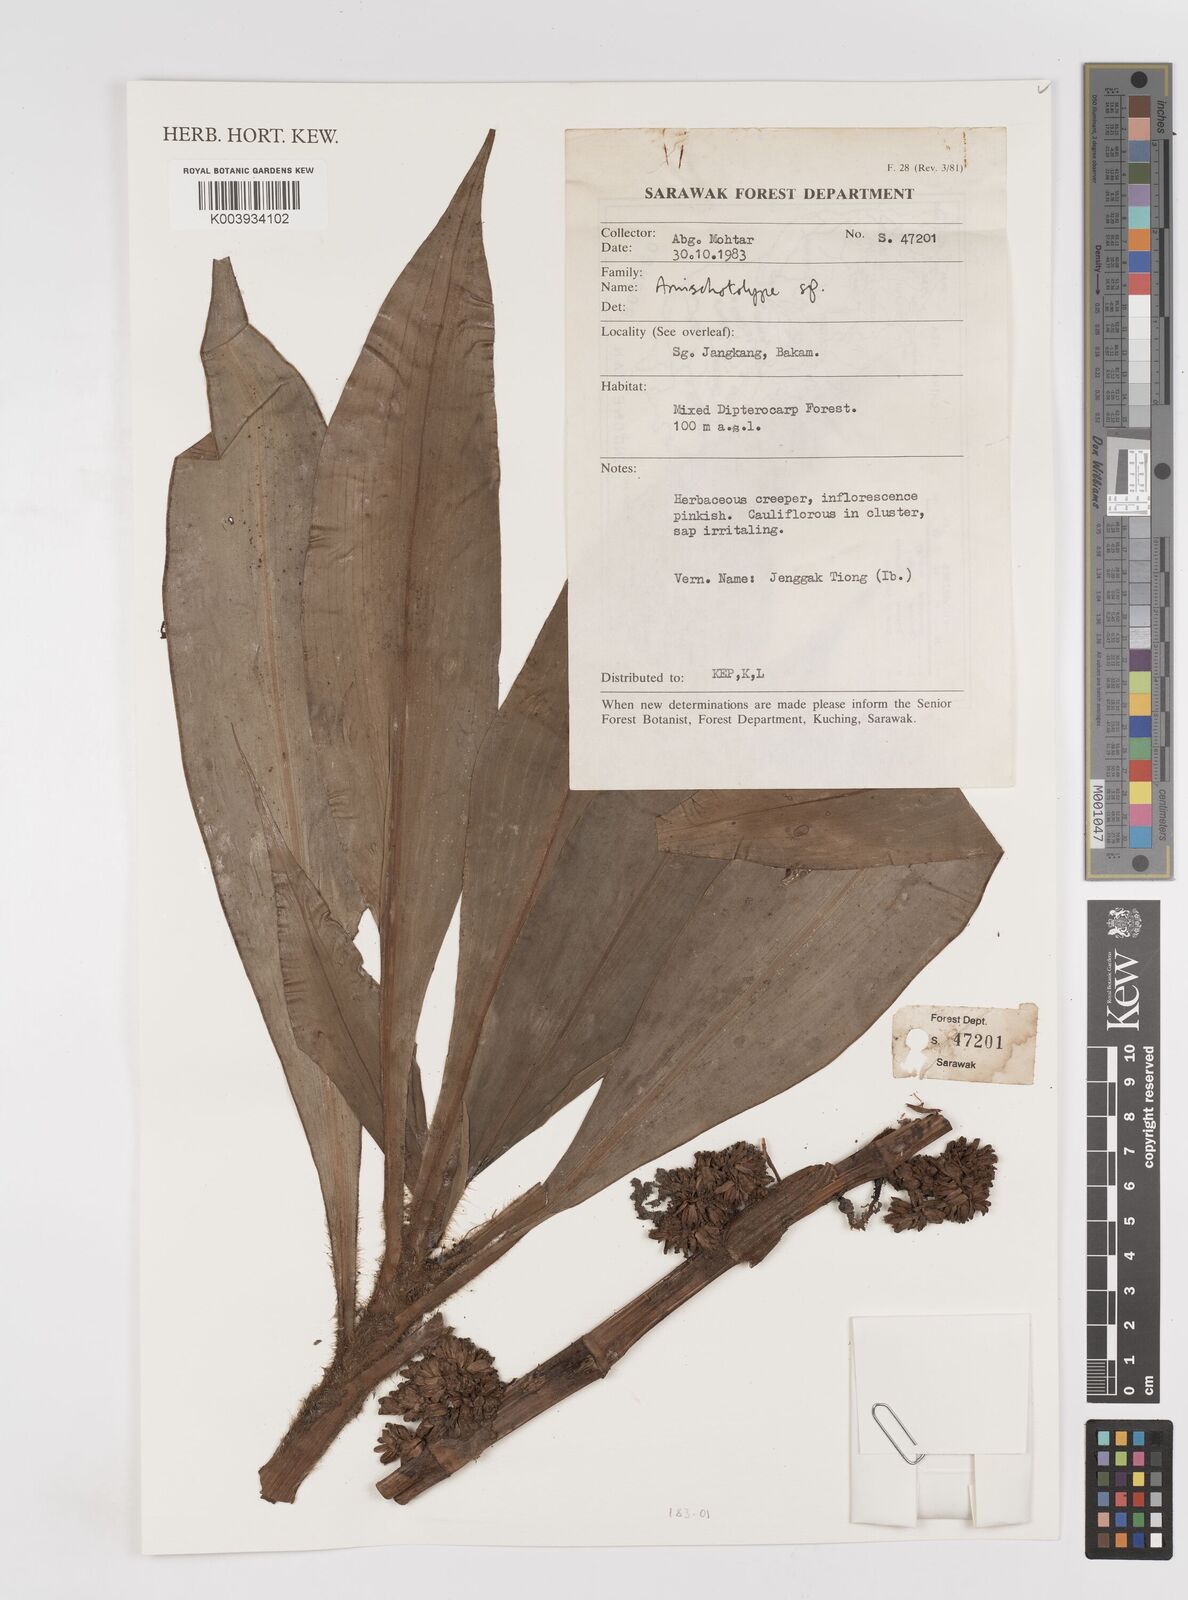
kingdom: Plantae
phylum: Tracheophyta
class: Liliopsida
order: Commelinales
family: Commelinaceae
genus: Amischotolype
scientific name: Amischotolype
